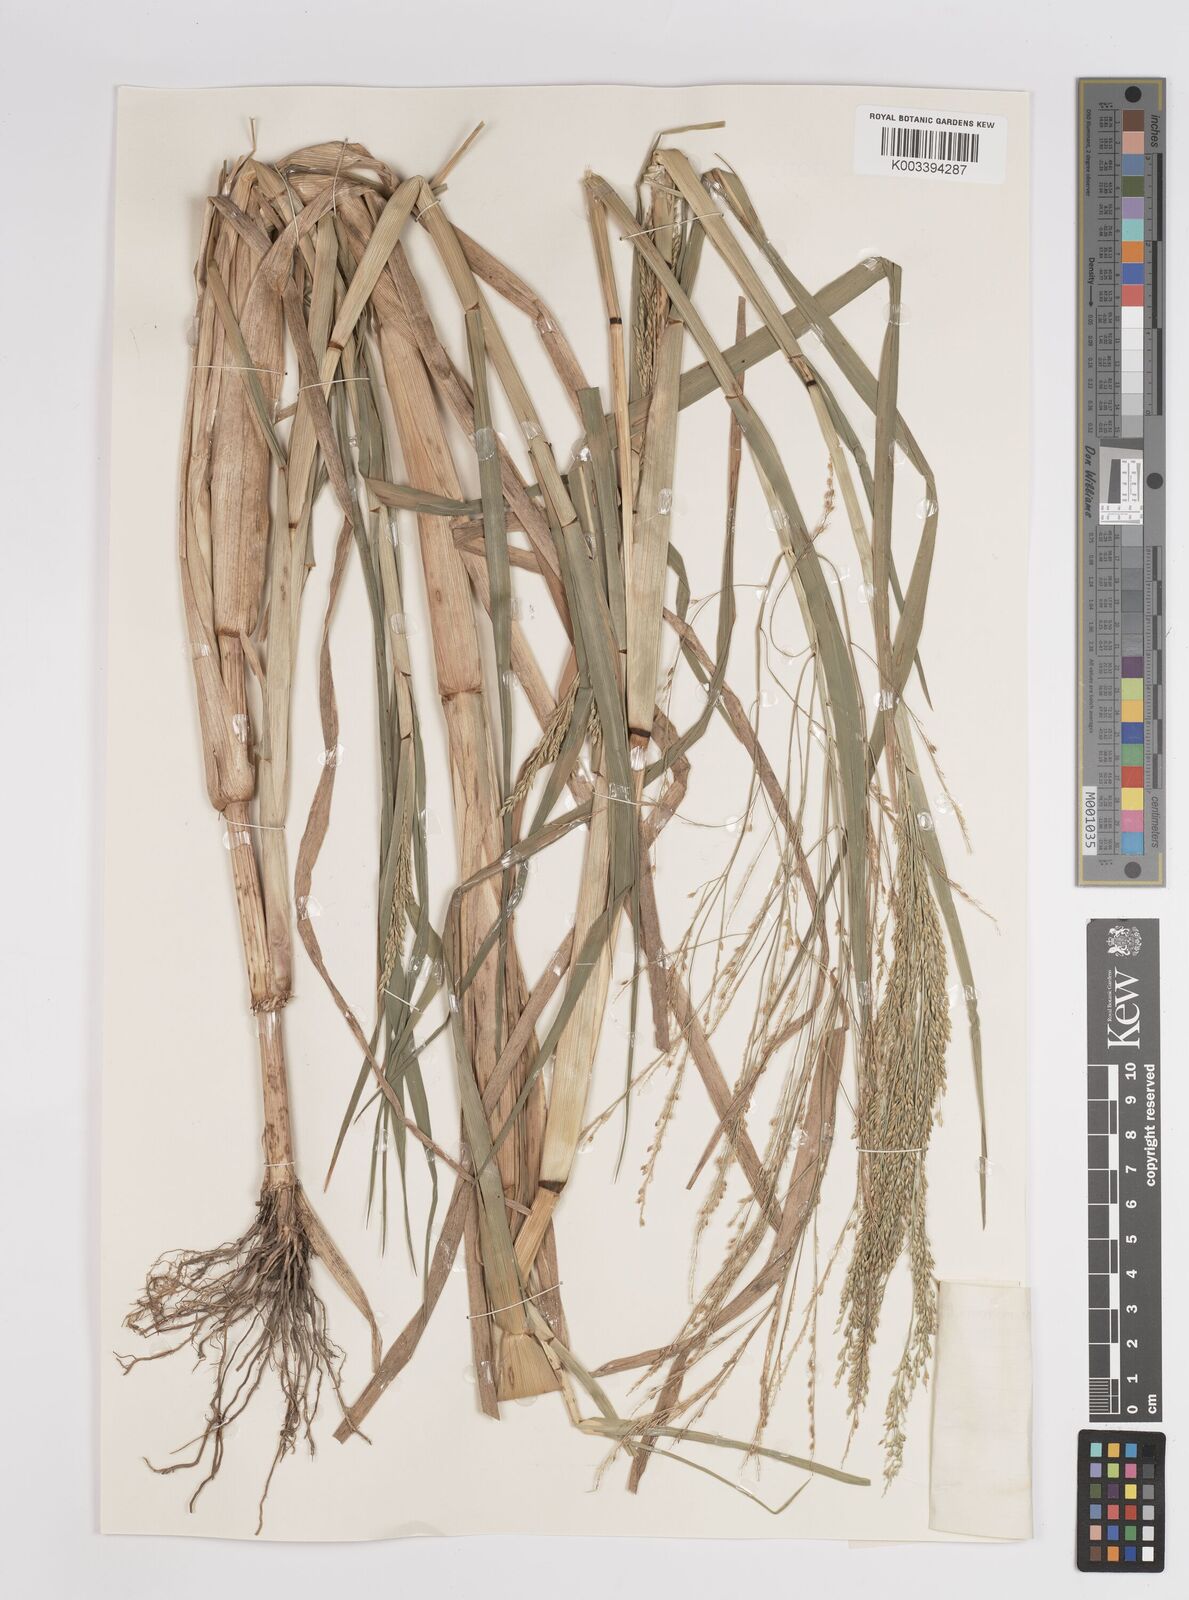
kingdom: Plantae
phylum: Tracheophyta
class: Liliopsida
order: Poales
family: Poaceae
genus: Panicum
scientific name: Panicum subalbidum
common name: Elbow buffalo grass
